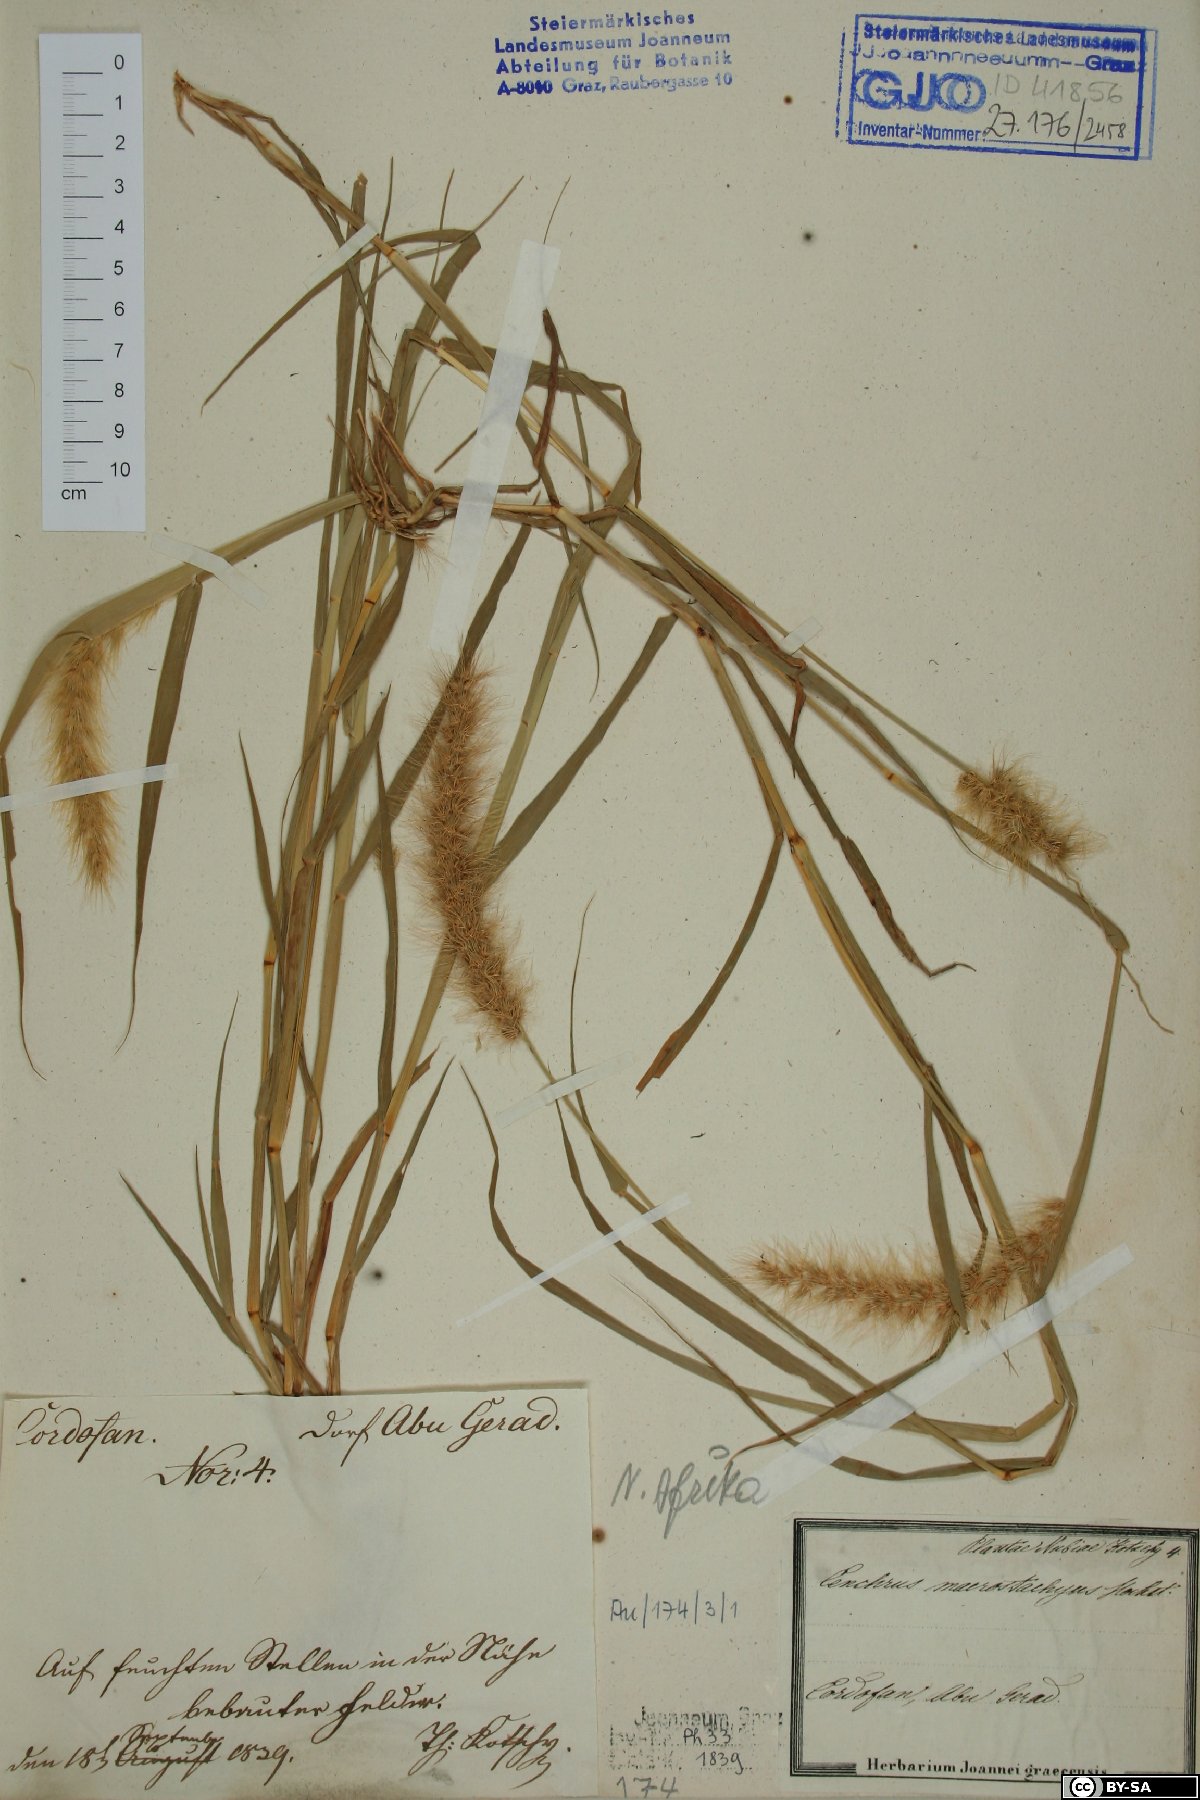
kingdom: Plantae
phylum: Tracheophyta
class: Liliopsida
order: Poales
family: Poaceae
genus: Cenchrus
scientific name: Cenchrus prieurii
